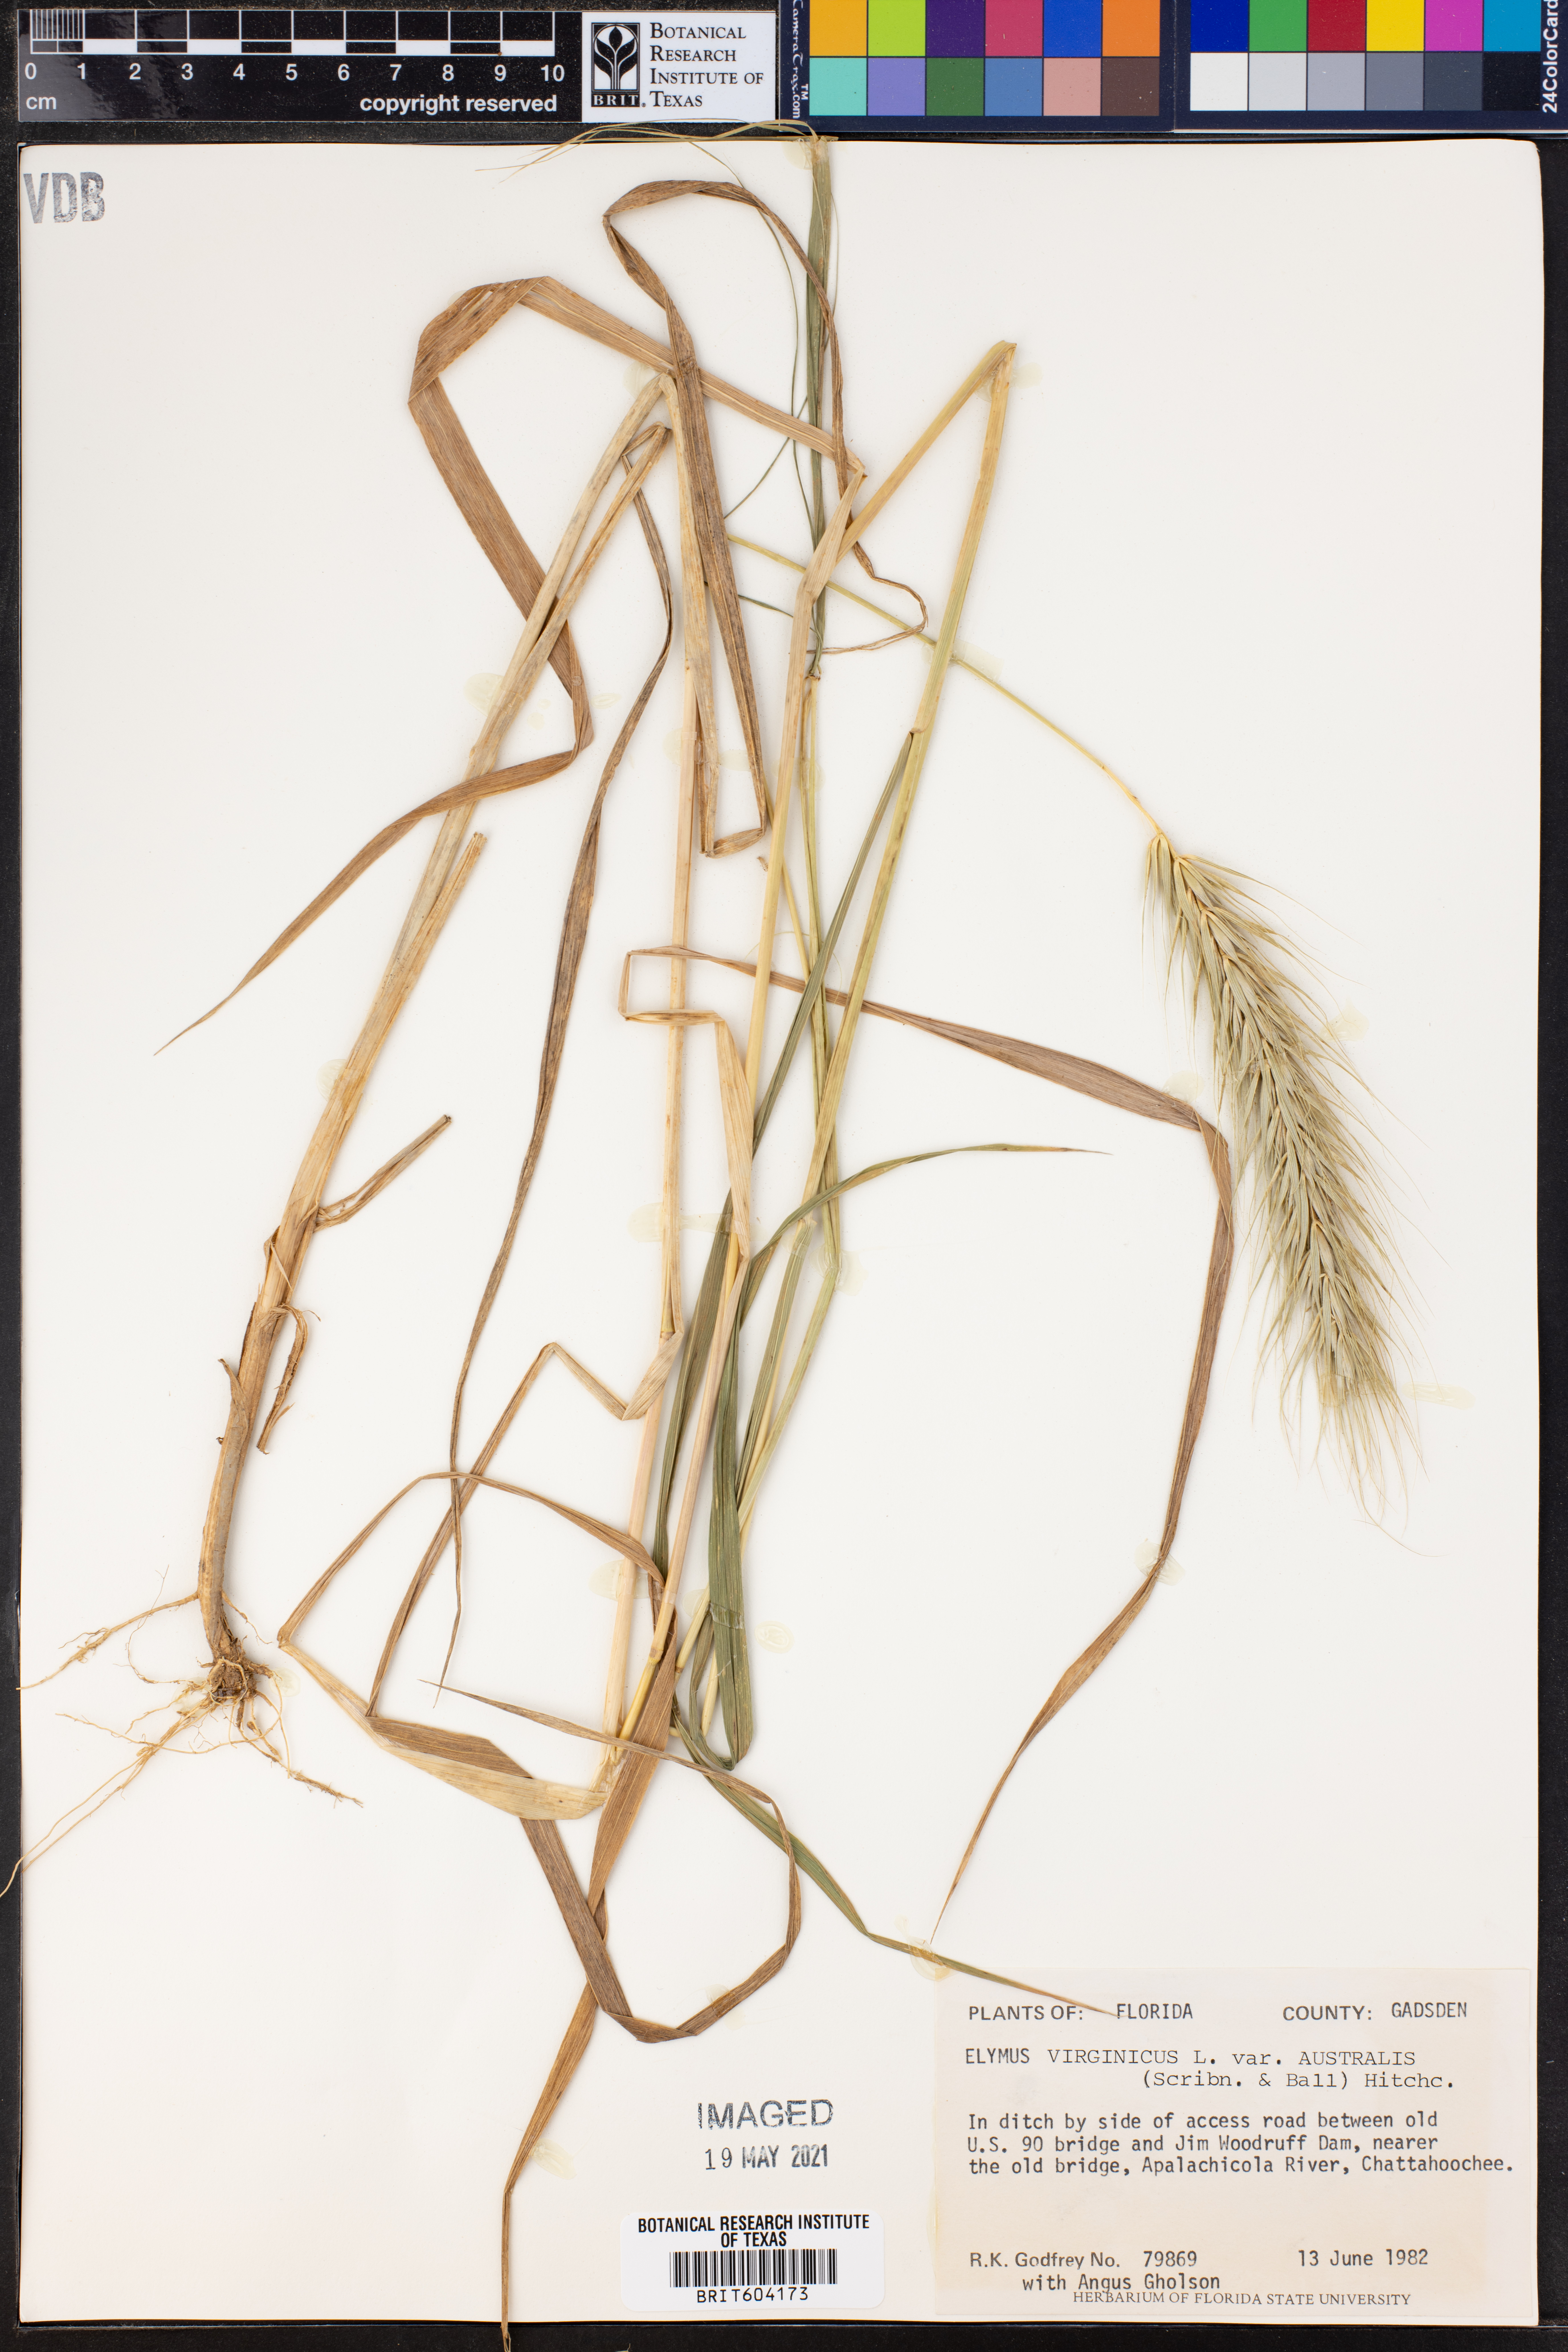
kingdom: Plantae
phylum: Tracheophyta
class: Liliopsida
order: Poales
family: Poaceae
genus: Elymus
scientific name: Elymus virginicus
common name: Common eastern wildrye
